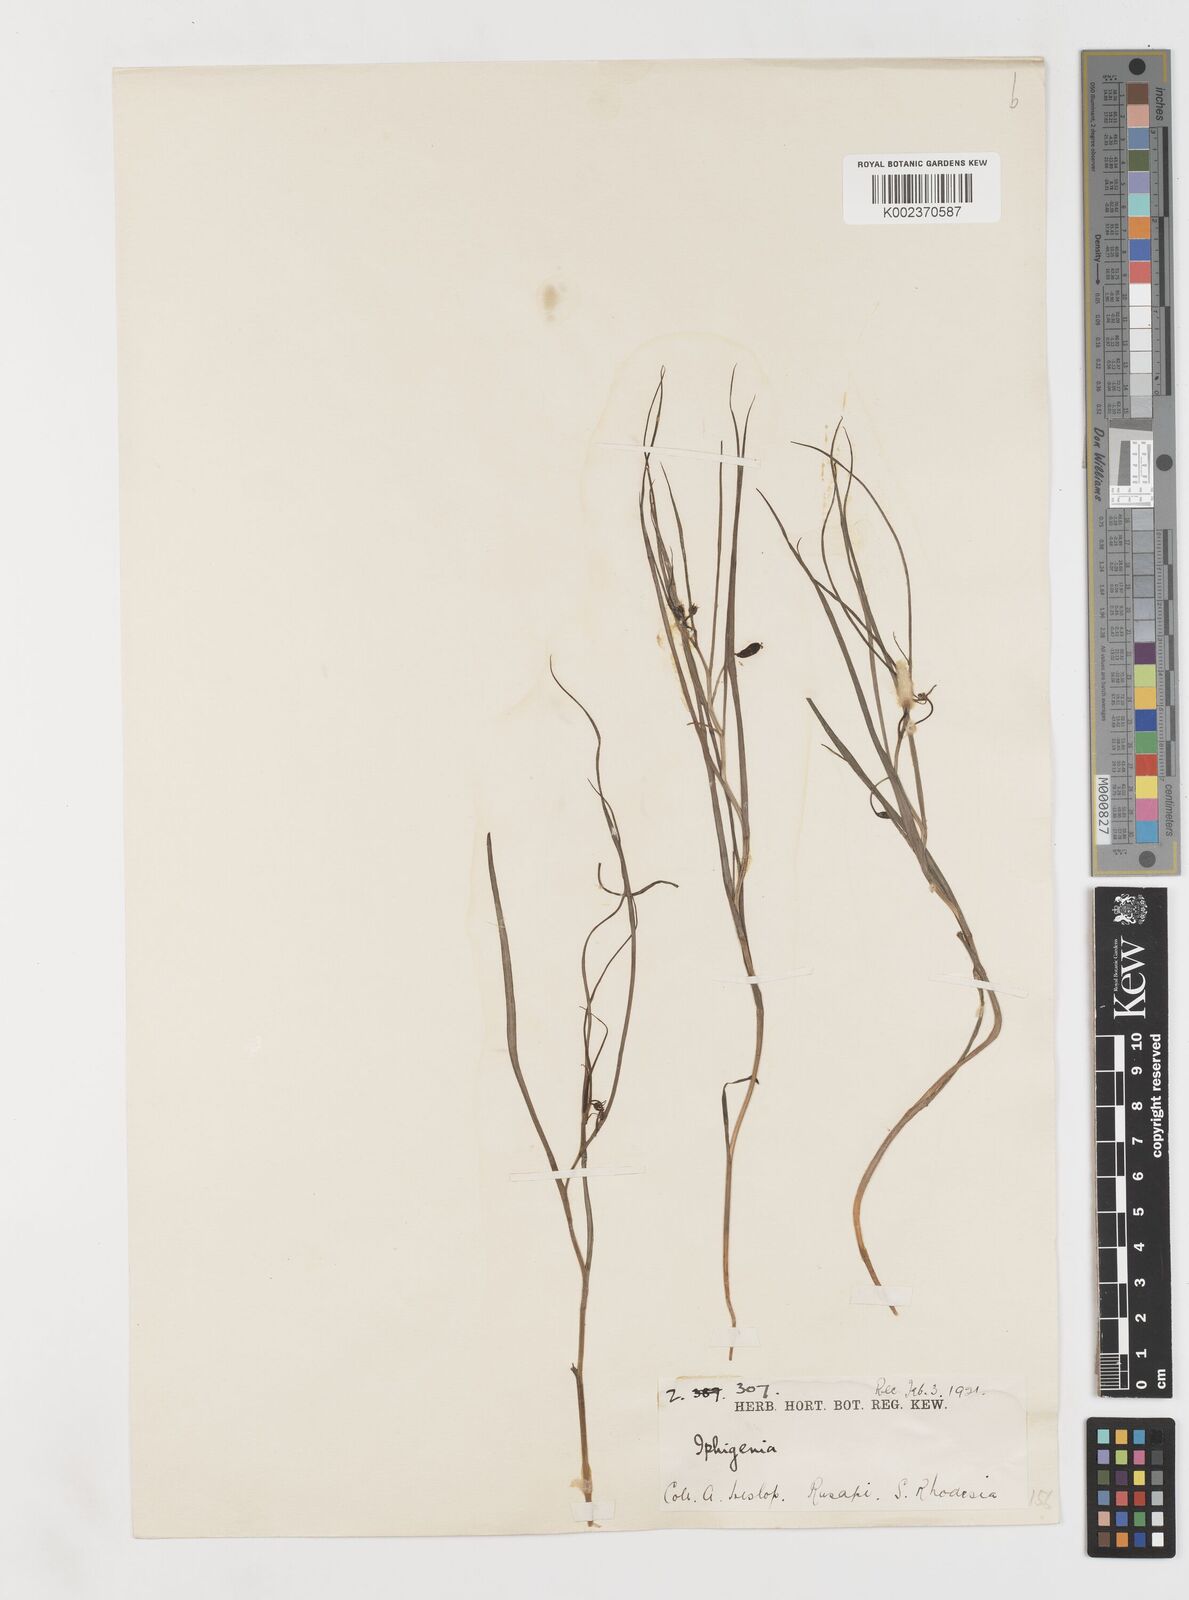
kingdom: Plantae
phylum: Tracheophyta
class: Liliopsida
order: Liliales
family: Colchicaceae
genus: Iphigenia
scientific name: Iphigenia oliveri
